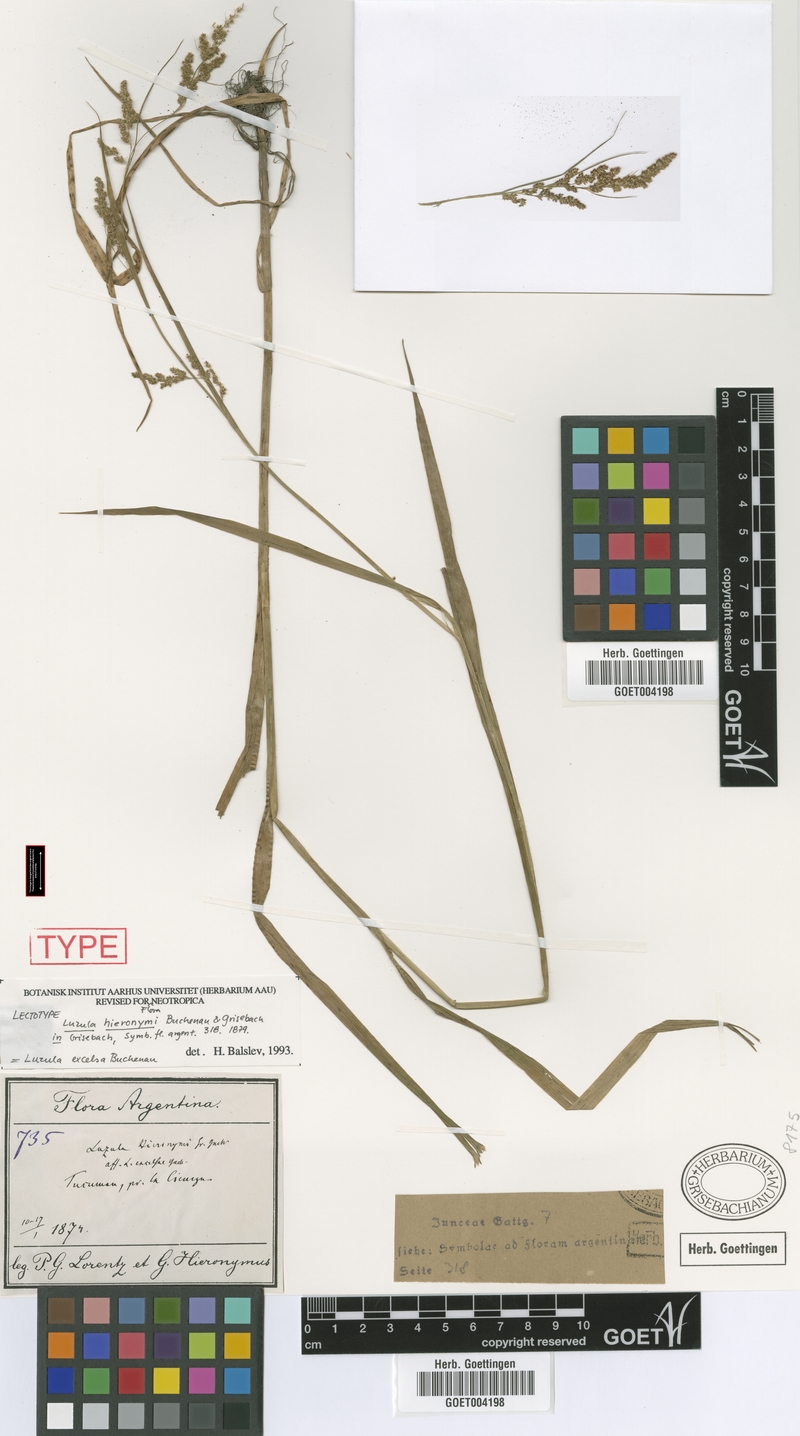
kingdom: Plantae
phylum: Tracheophyta
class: Liliopsida
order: Poales
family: Juncaceae
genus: Luzula
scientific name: Luzula excelsa
